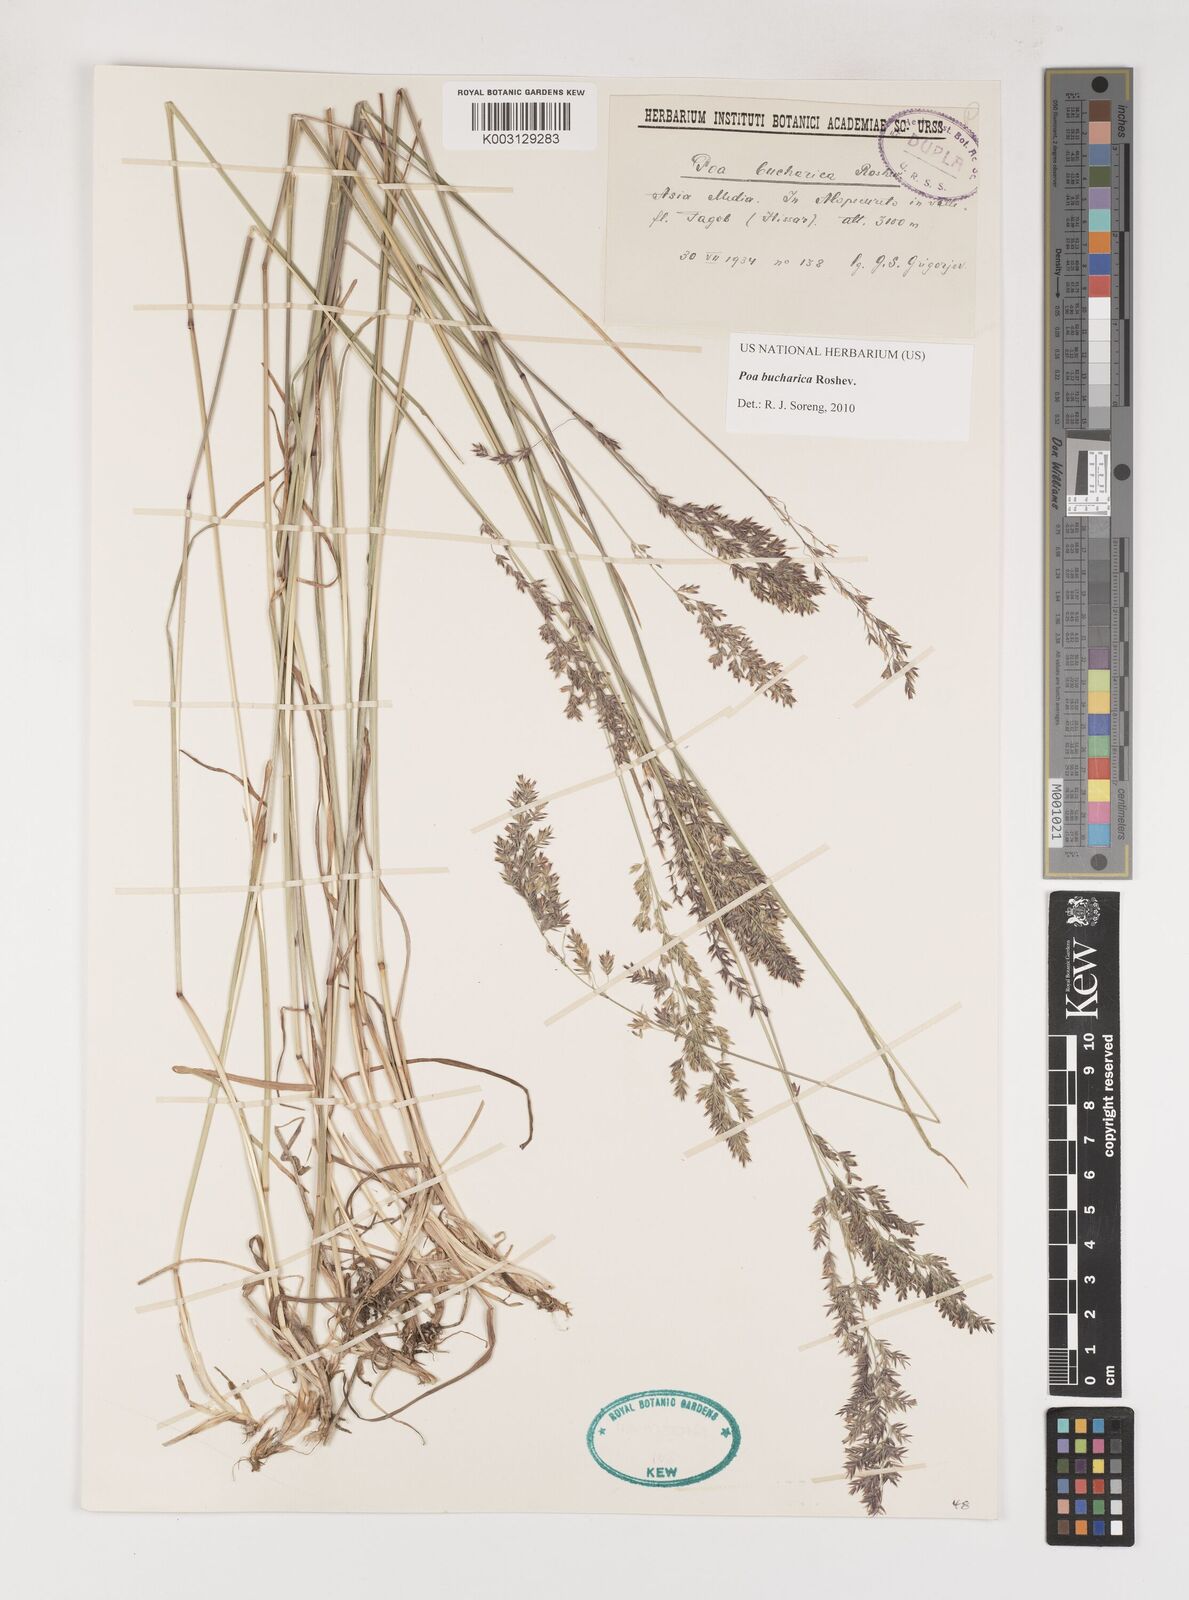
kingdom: Plantae
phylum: Tracheophyta
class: Liliopsida
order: Poales
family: Poaceae
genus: Poa
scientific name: Poa bucharica
